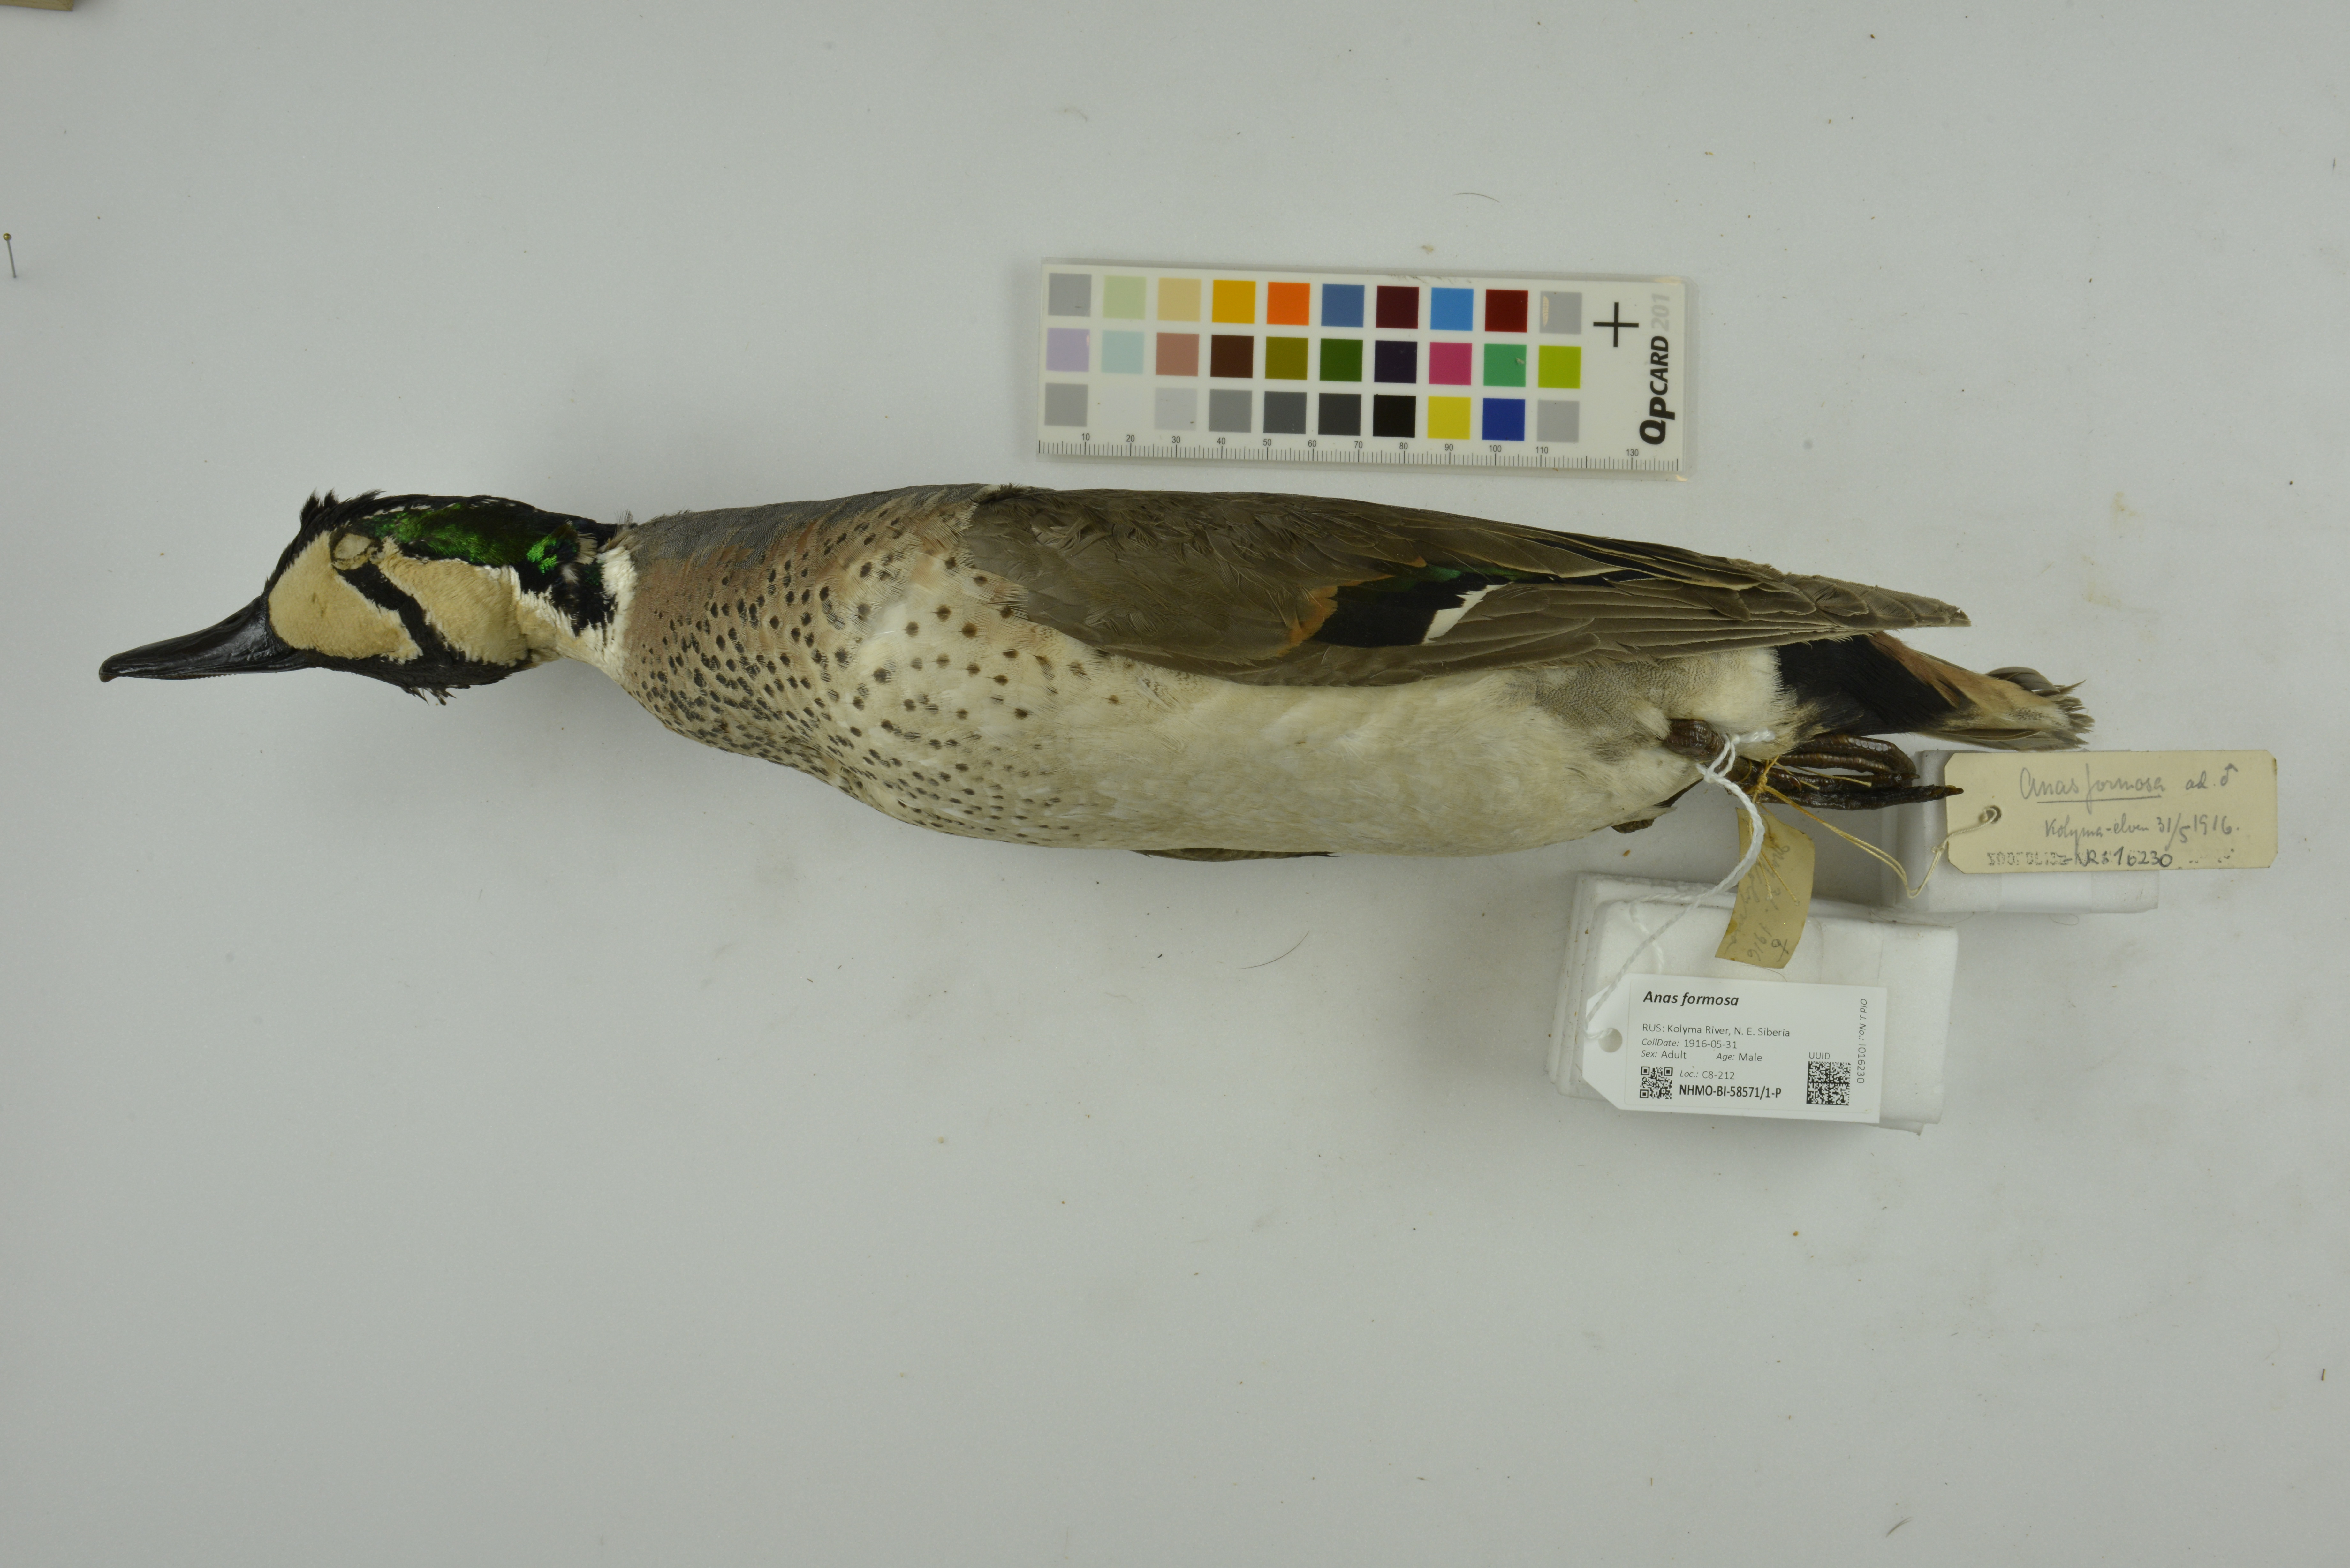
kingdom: Animalia
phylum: Chordata
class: Aves
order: Anseriformes
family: Anatidae
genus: Sibirionetta
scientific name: Sibirionetta formosa
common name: Baikal teal
